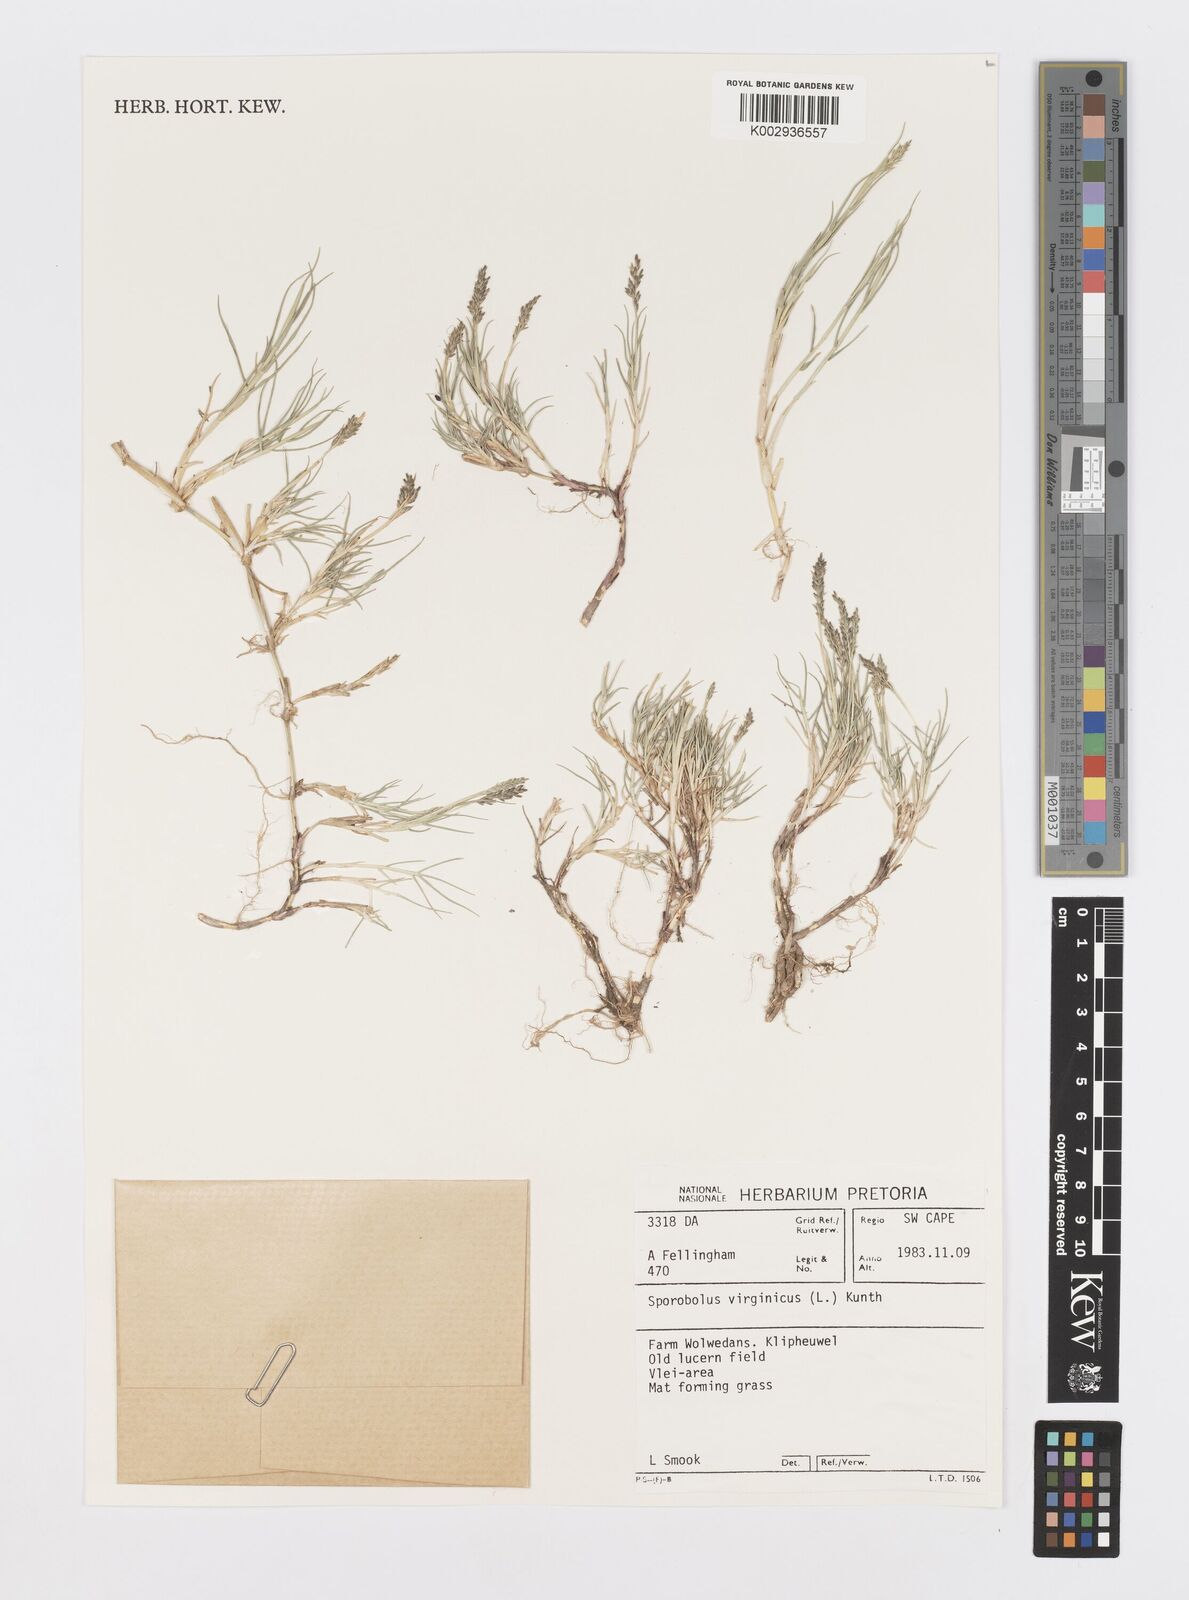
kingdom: Plantae
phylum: Tracheophyta
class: Liliopsida
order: Poales
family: Poaceae
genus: Sporobolus
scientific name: Sporobolus virginicus
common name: Beach dropseed
